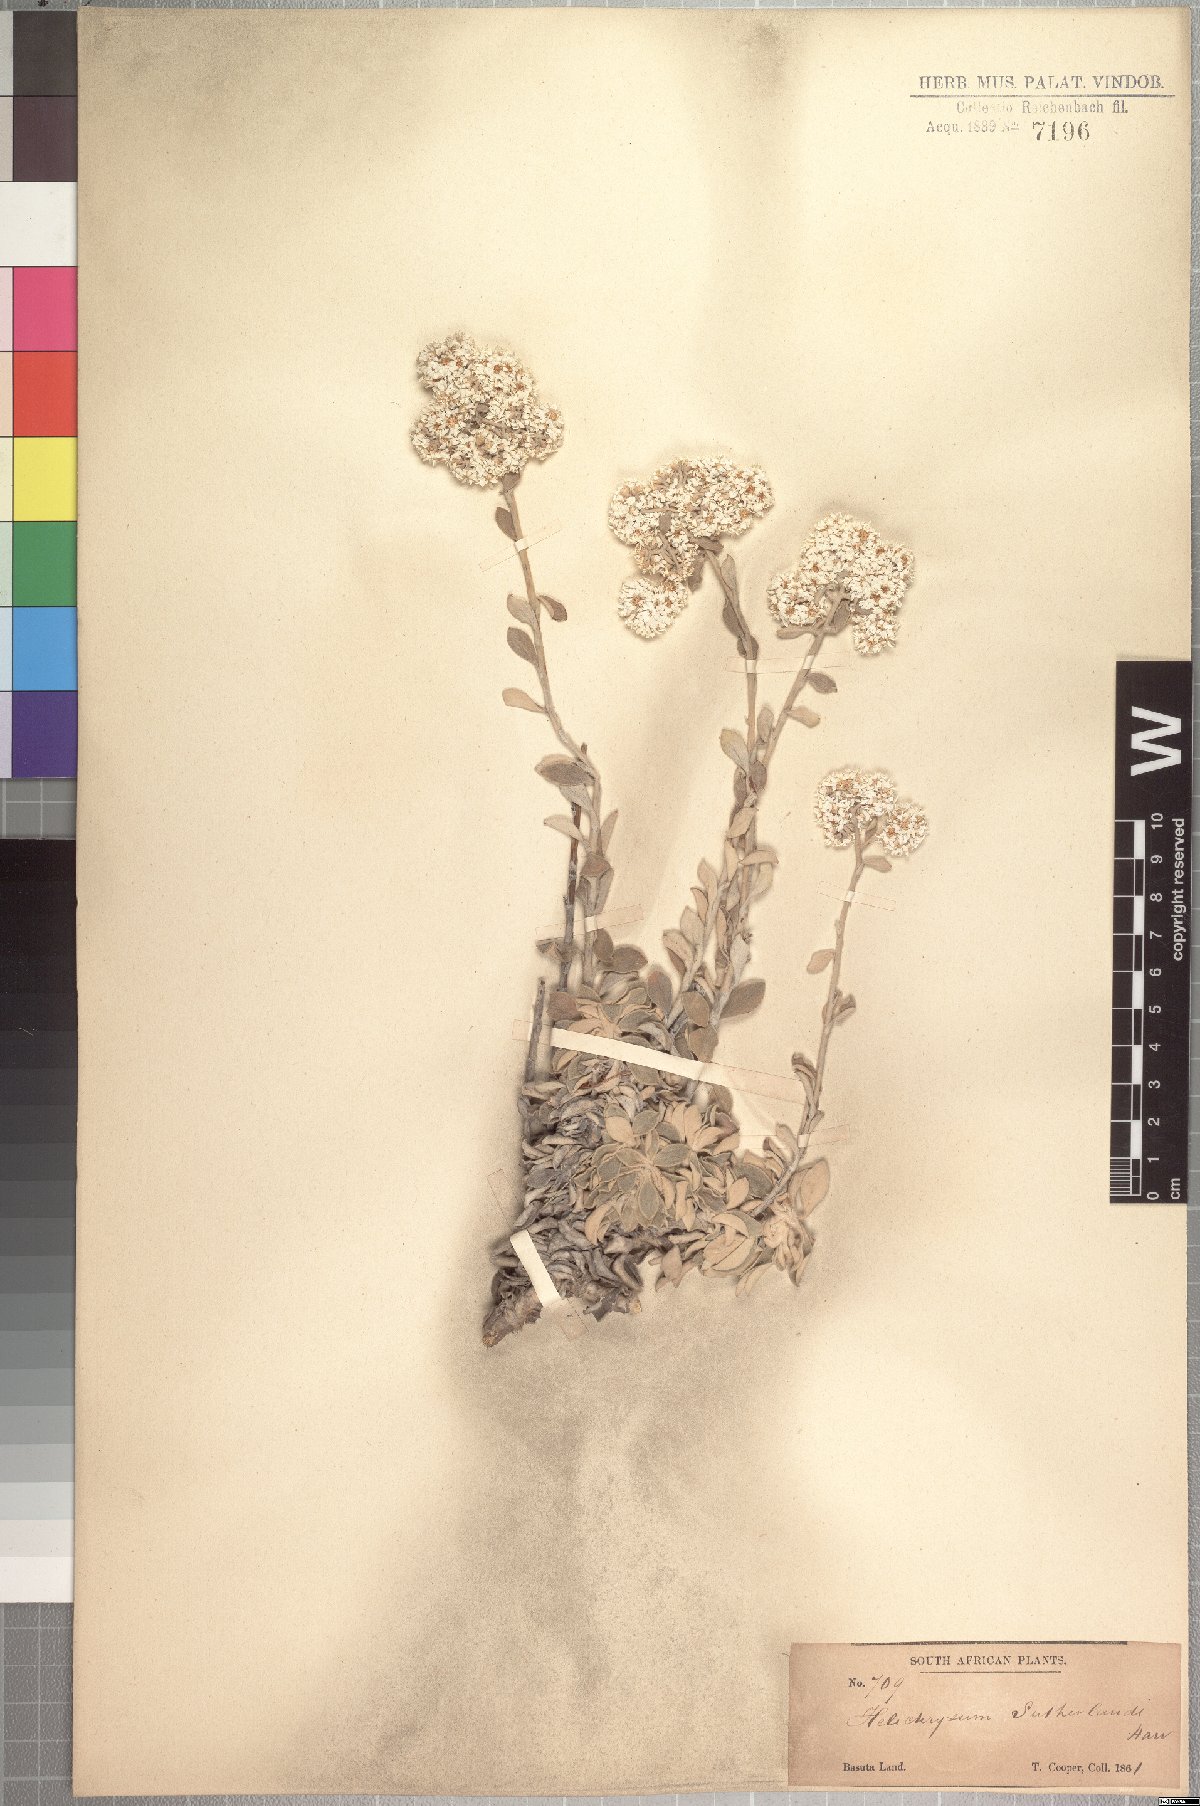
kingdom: Plantae
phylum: Tracheophyta
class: Magnoliopsida
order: Asterales
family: Asteraceae
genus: Helichrysum
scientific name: Helichrysum sutherlandii
